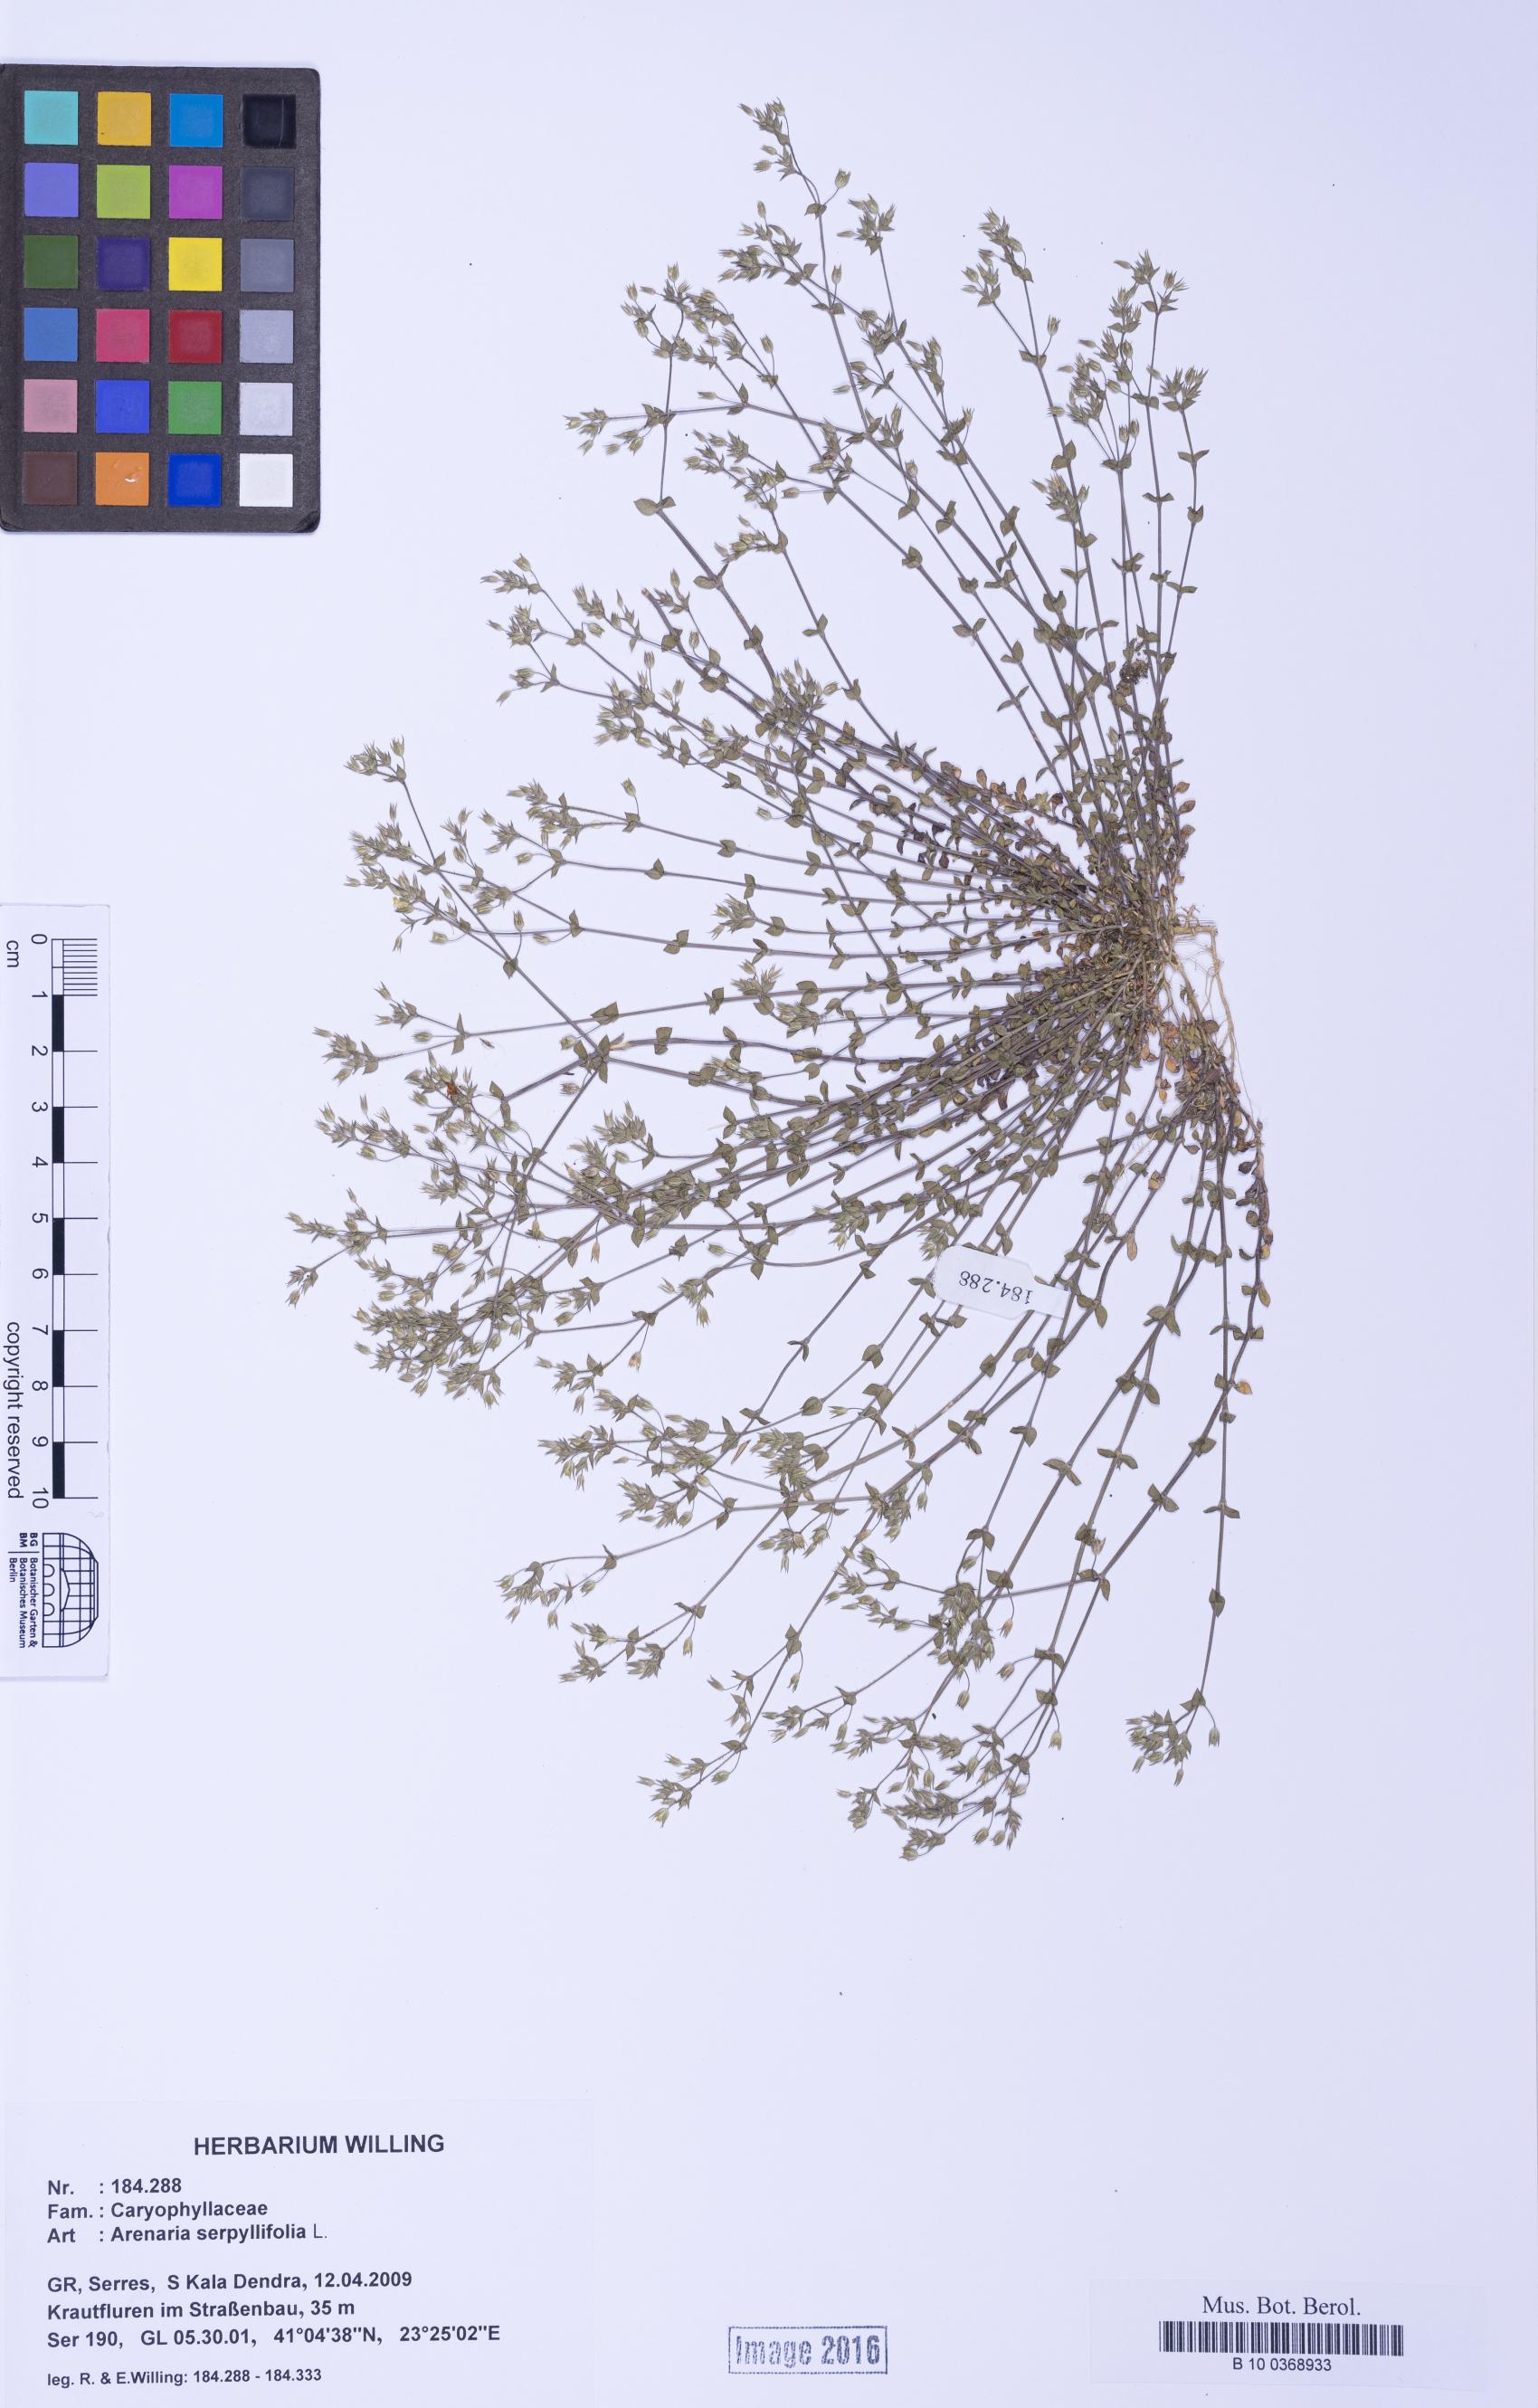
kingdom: Plantae
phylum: Tracheophyta
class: Magnoliopsida
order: Caryophyllales
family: Caryophyllaceae
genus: Arenaria
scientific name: Arenaria serpyllifolia
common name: Thyme-leaved sandwort
